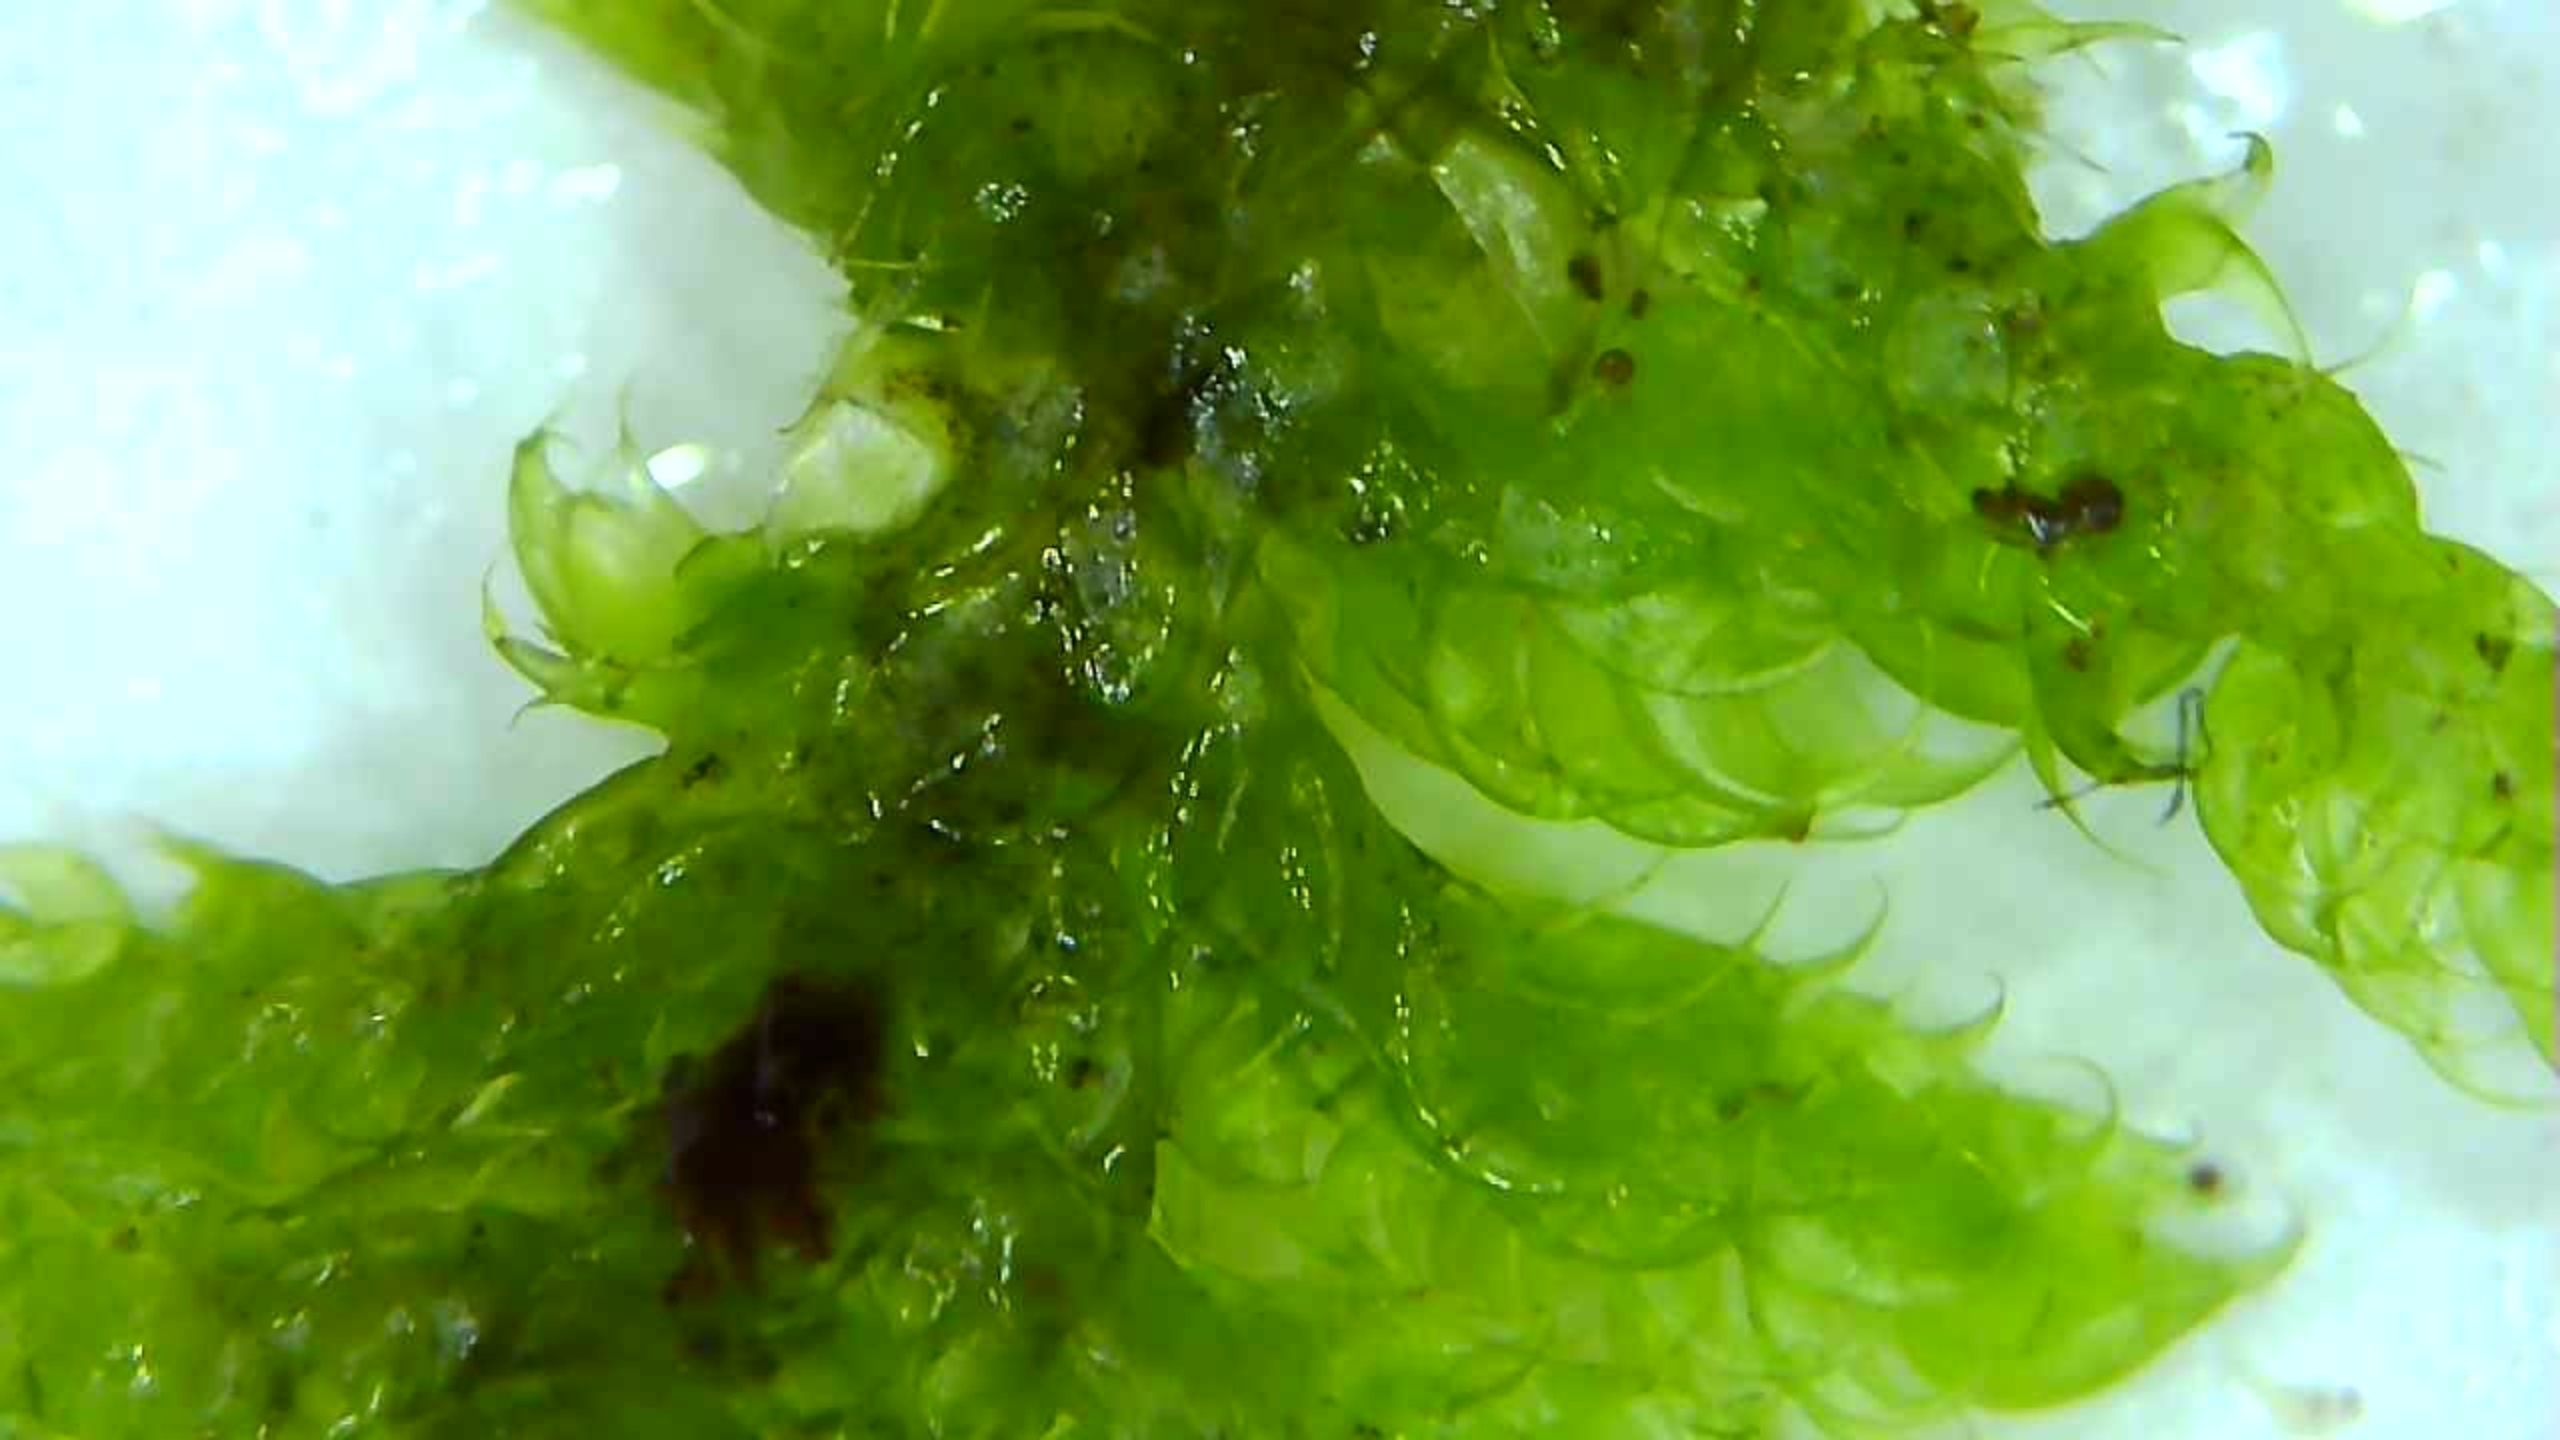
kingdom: Plantae
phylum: Bryophyta
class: Bryopsida
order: Hypnales
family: Hypnaceae
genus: Hypnum
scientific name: Hypnum cupressiforme
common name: Almindelig cypresmos
